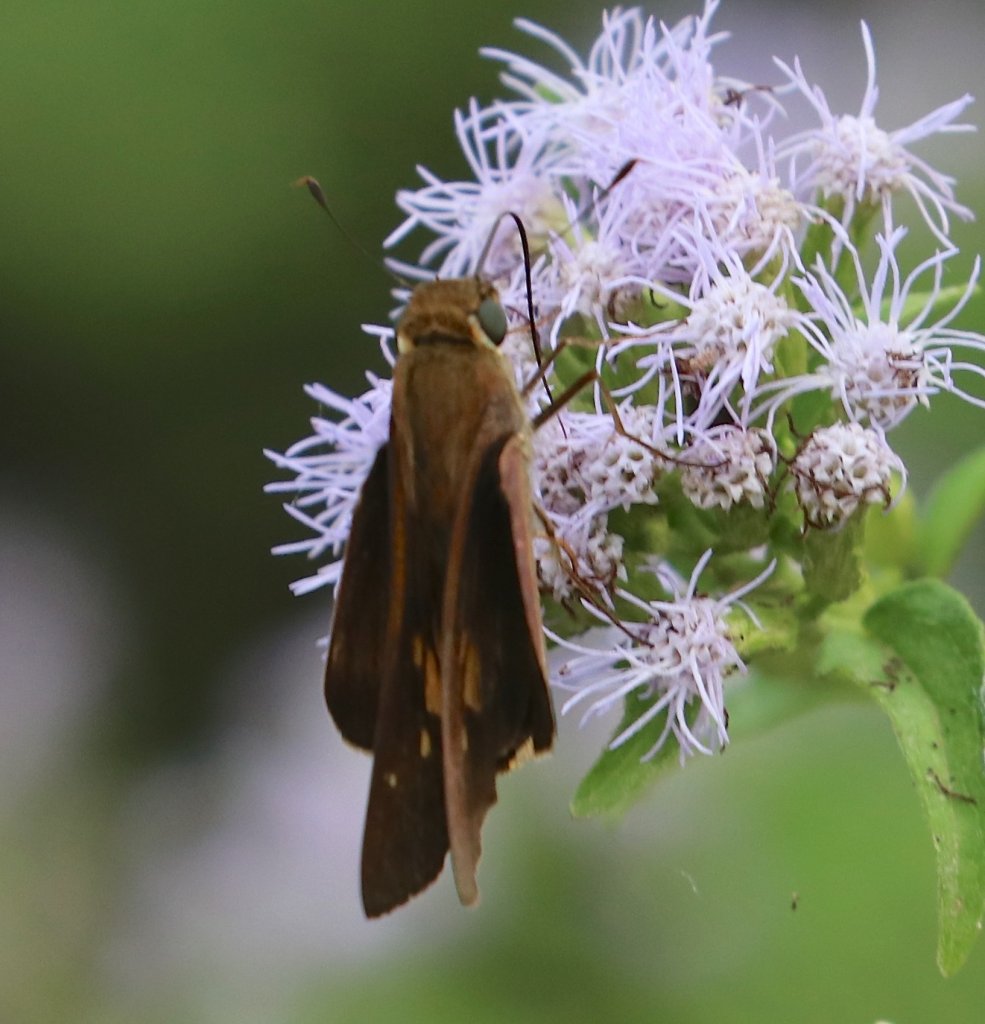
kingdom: Animalia
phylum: Arthropoda
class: Insecta
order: Lepidoptera
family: Hesperiidae
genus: Panoquina
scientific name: Panoquina fusina
